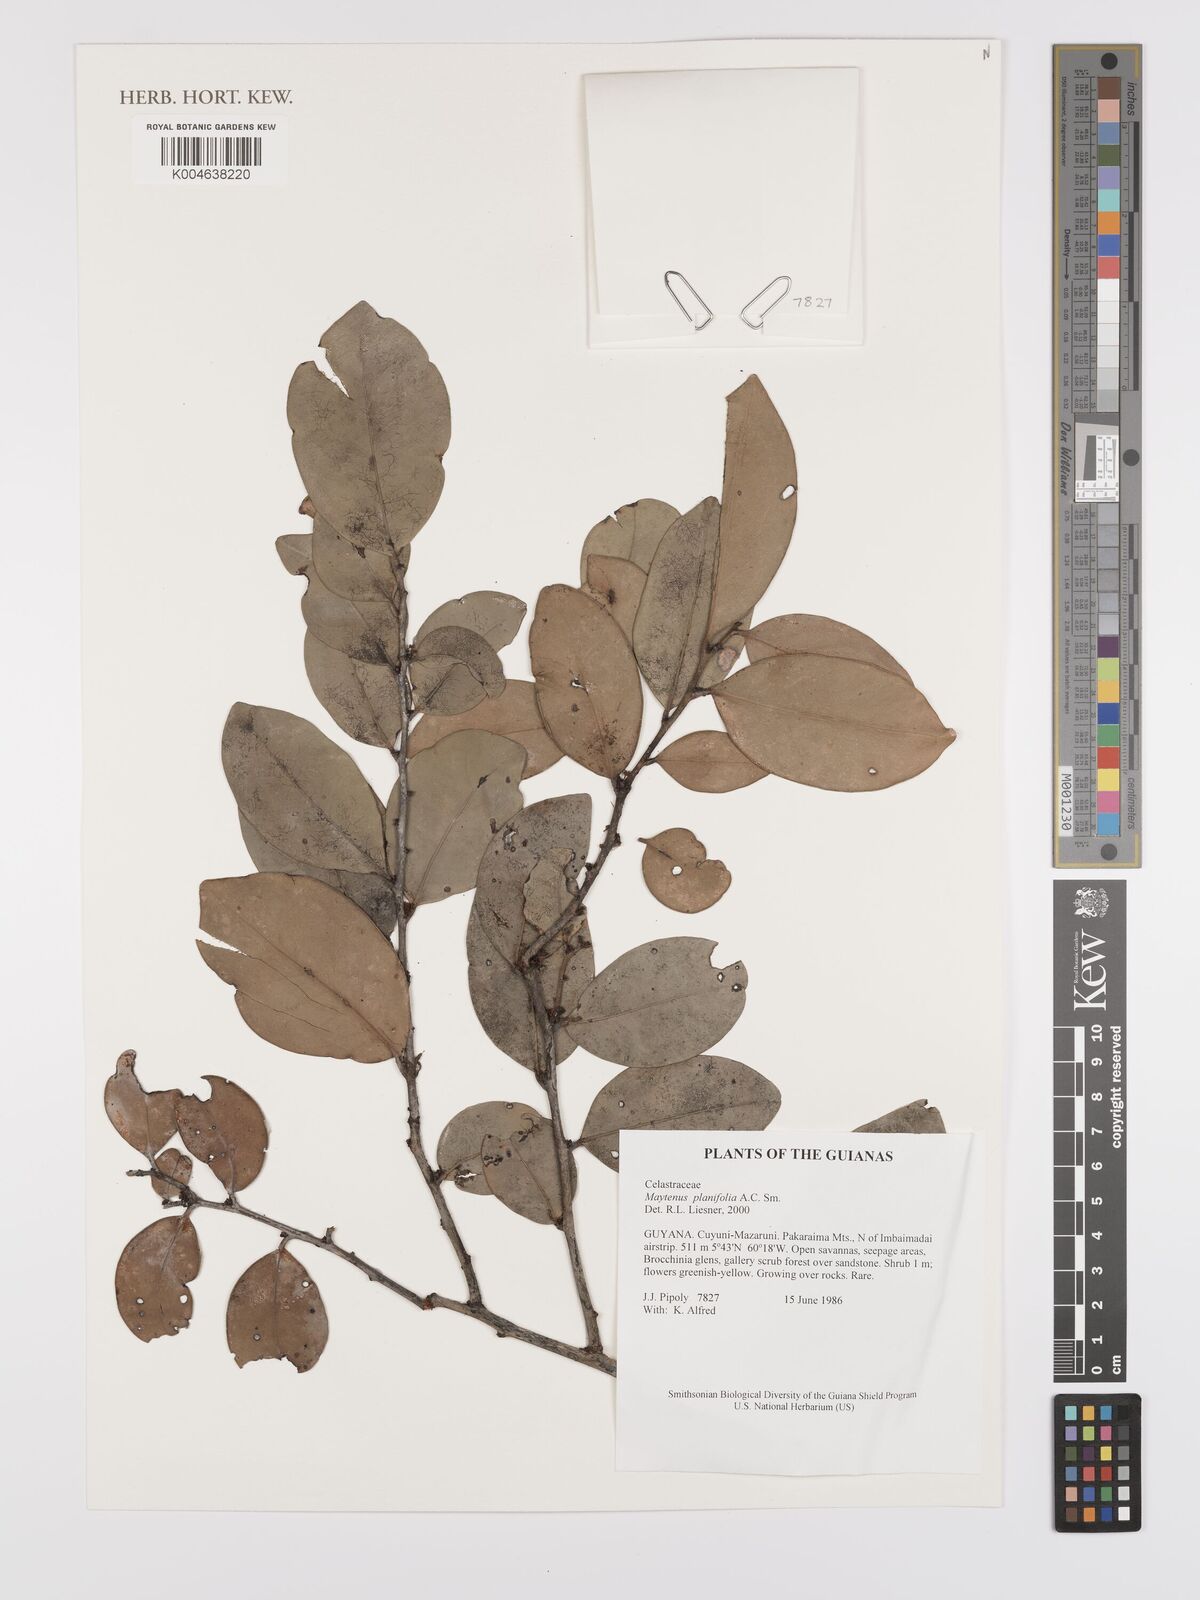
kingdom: Plantae
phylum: Tracheophyta
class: Magnoliopsida
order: Celastrales
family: Celastraceae
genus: Monteverdia
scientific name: Monteverdia planifolia
